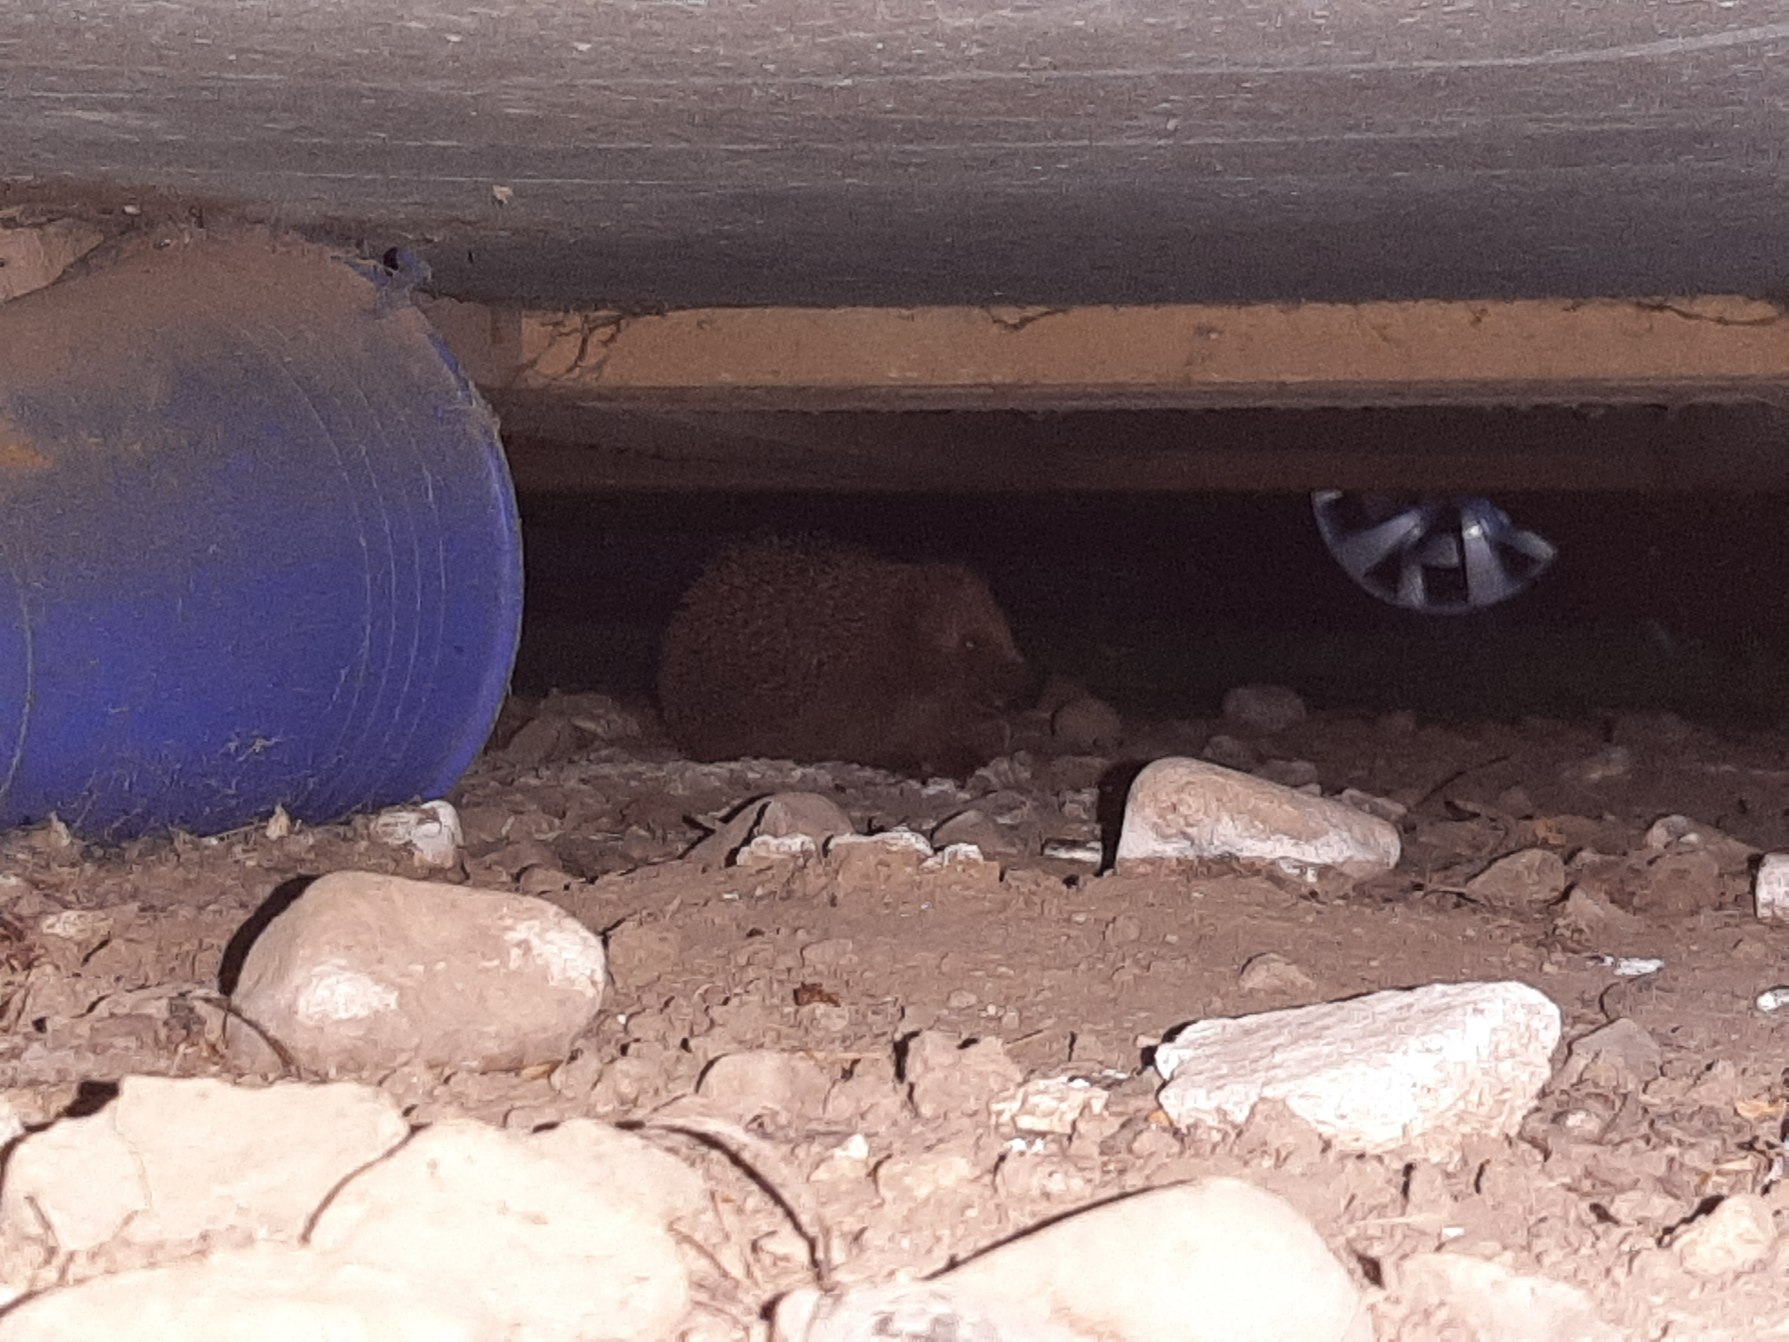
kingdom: Animalia
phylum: Chordata
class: Mammalia
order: Erinaceomorpha
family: Erinaceidae
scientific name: Erinaceidae
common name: Pindsvin
